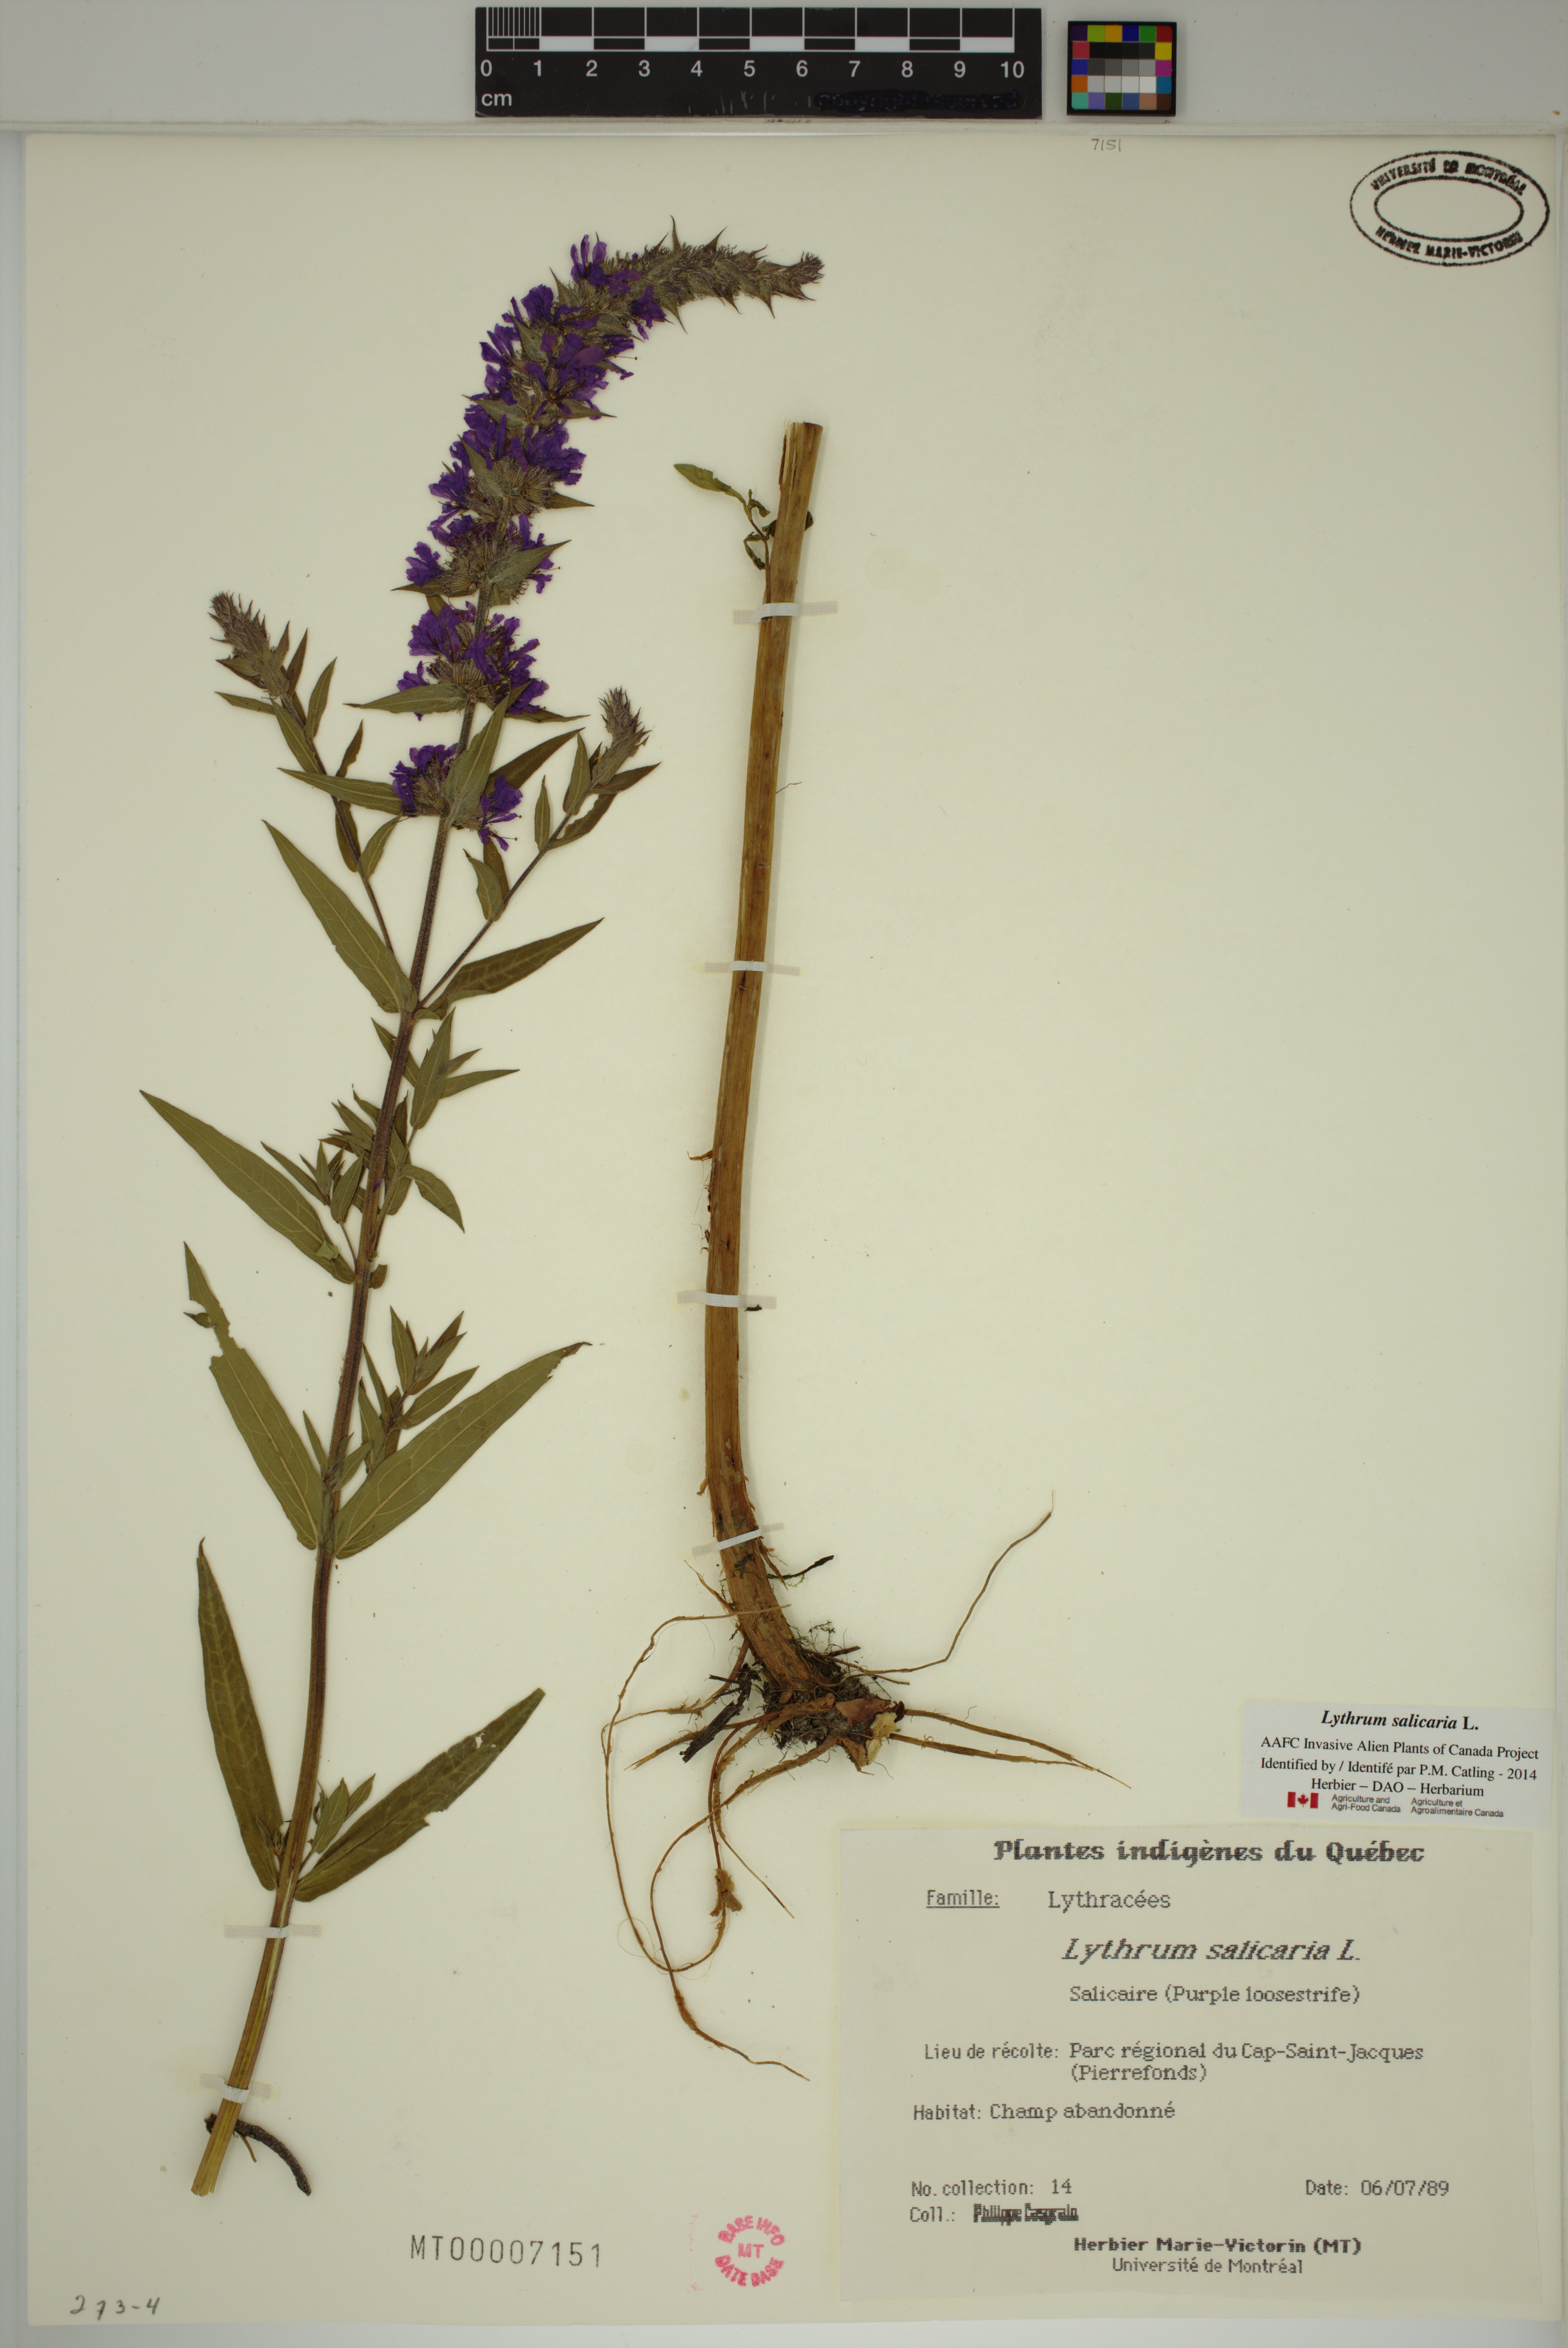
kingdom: Plantae
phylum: Tracheophyta
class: Magnoliopsida
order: Myrtales
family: Lythraceae
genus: Lythrum
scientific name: Lythrum salicaria
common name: Purple loosestrife
